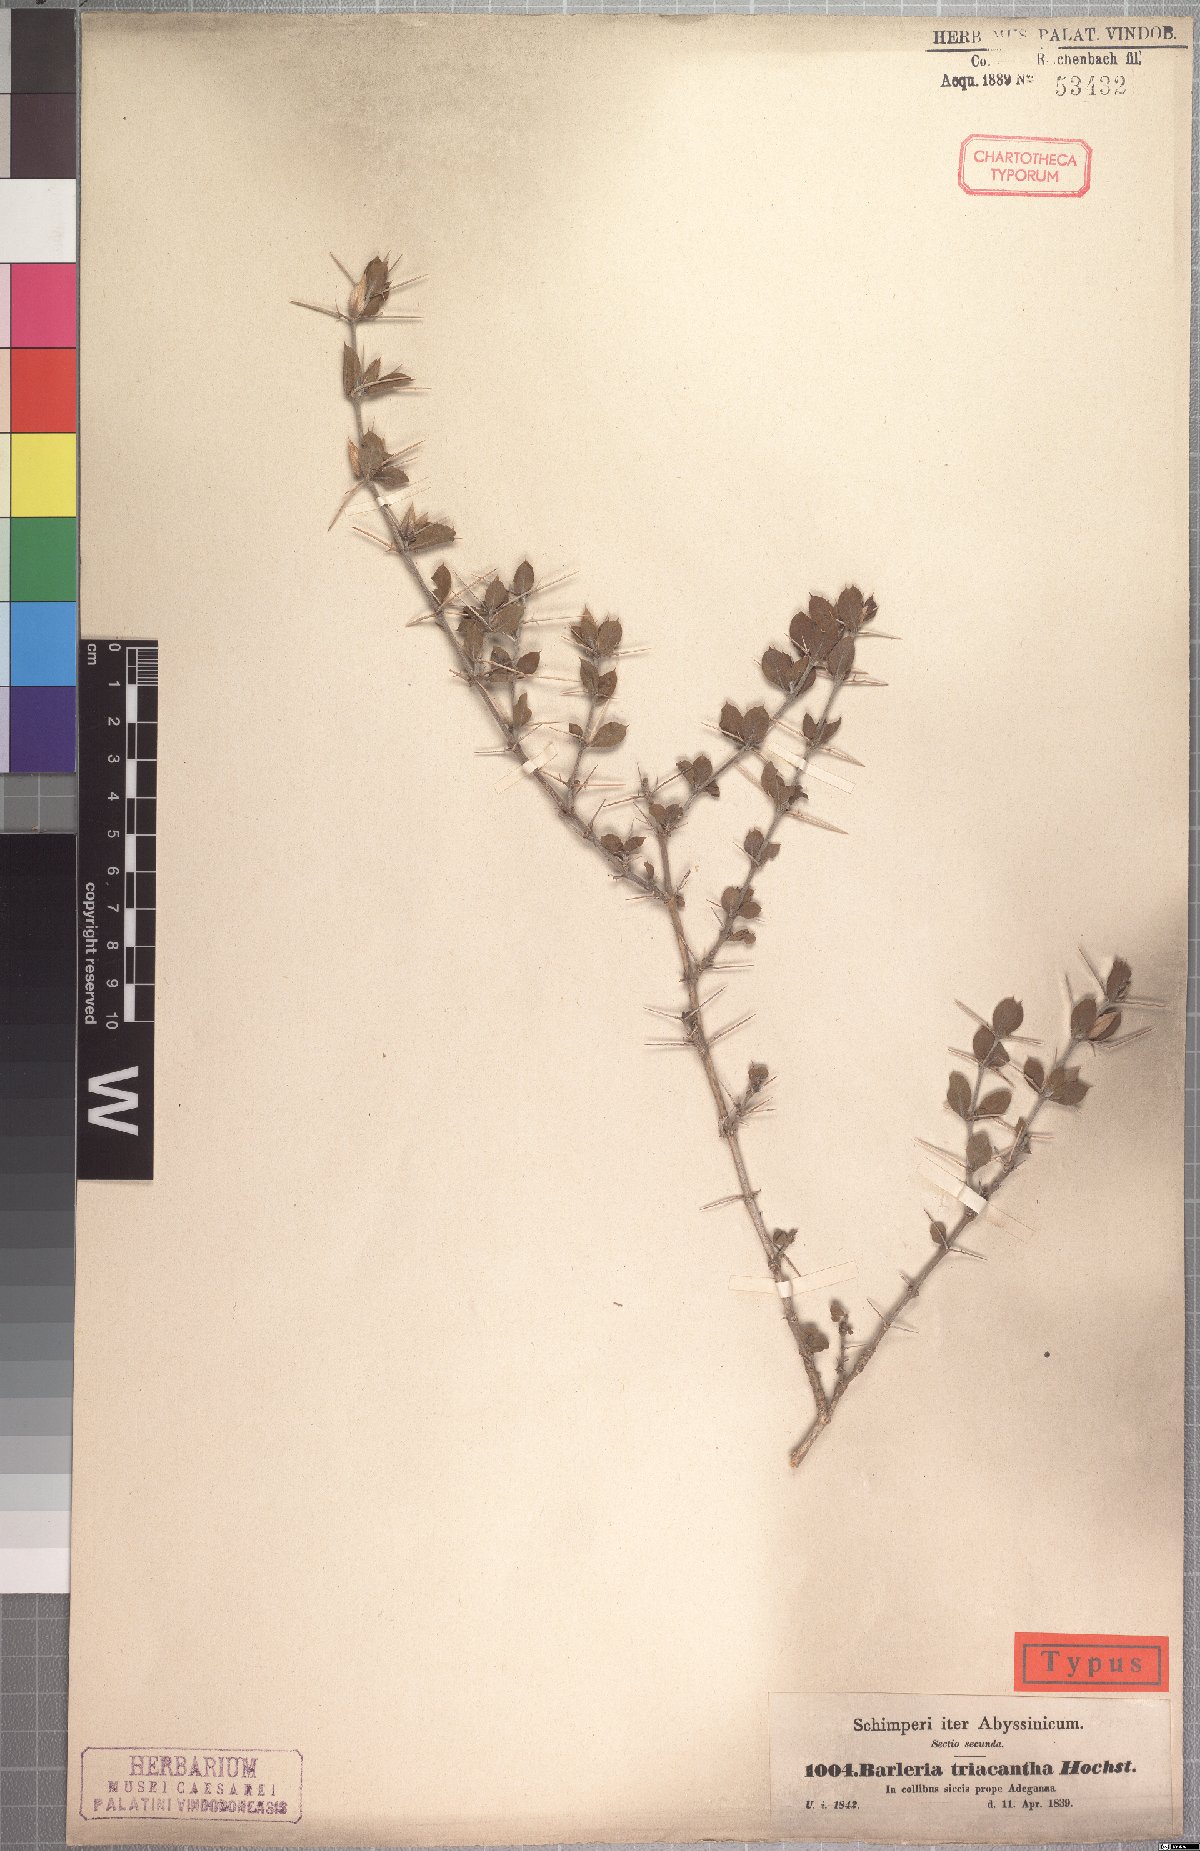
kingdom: Plantae
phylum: Tracheophyta
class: Magnoliopsida
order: Lamiales
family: Acanthaceae
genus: Barleria
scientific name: Barleria lanceata
